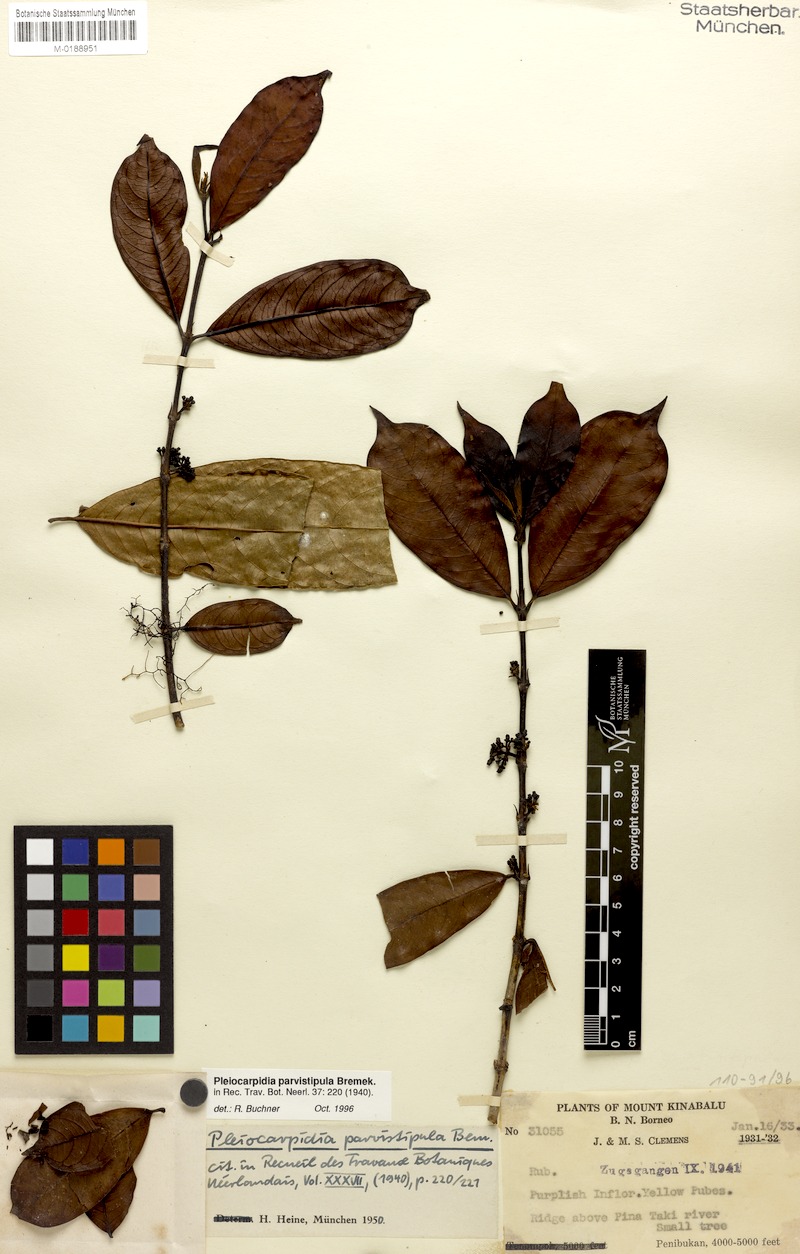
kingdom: Plantae
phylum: Tracheophyta
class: Magnoliopsida
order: Gentianales
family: Rubiaceae
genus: Urophyllum
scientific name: Urophyllum parvistipulum
